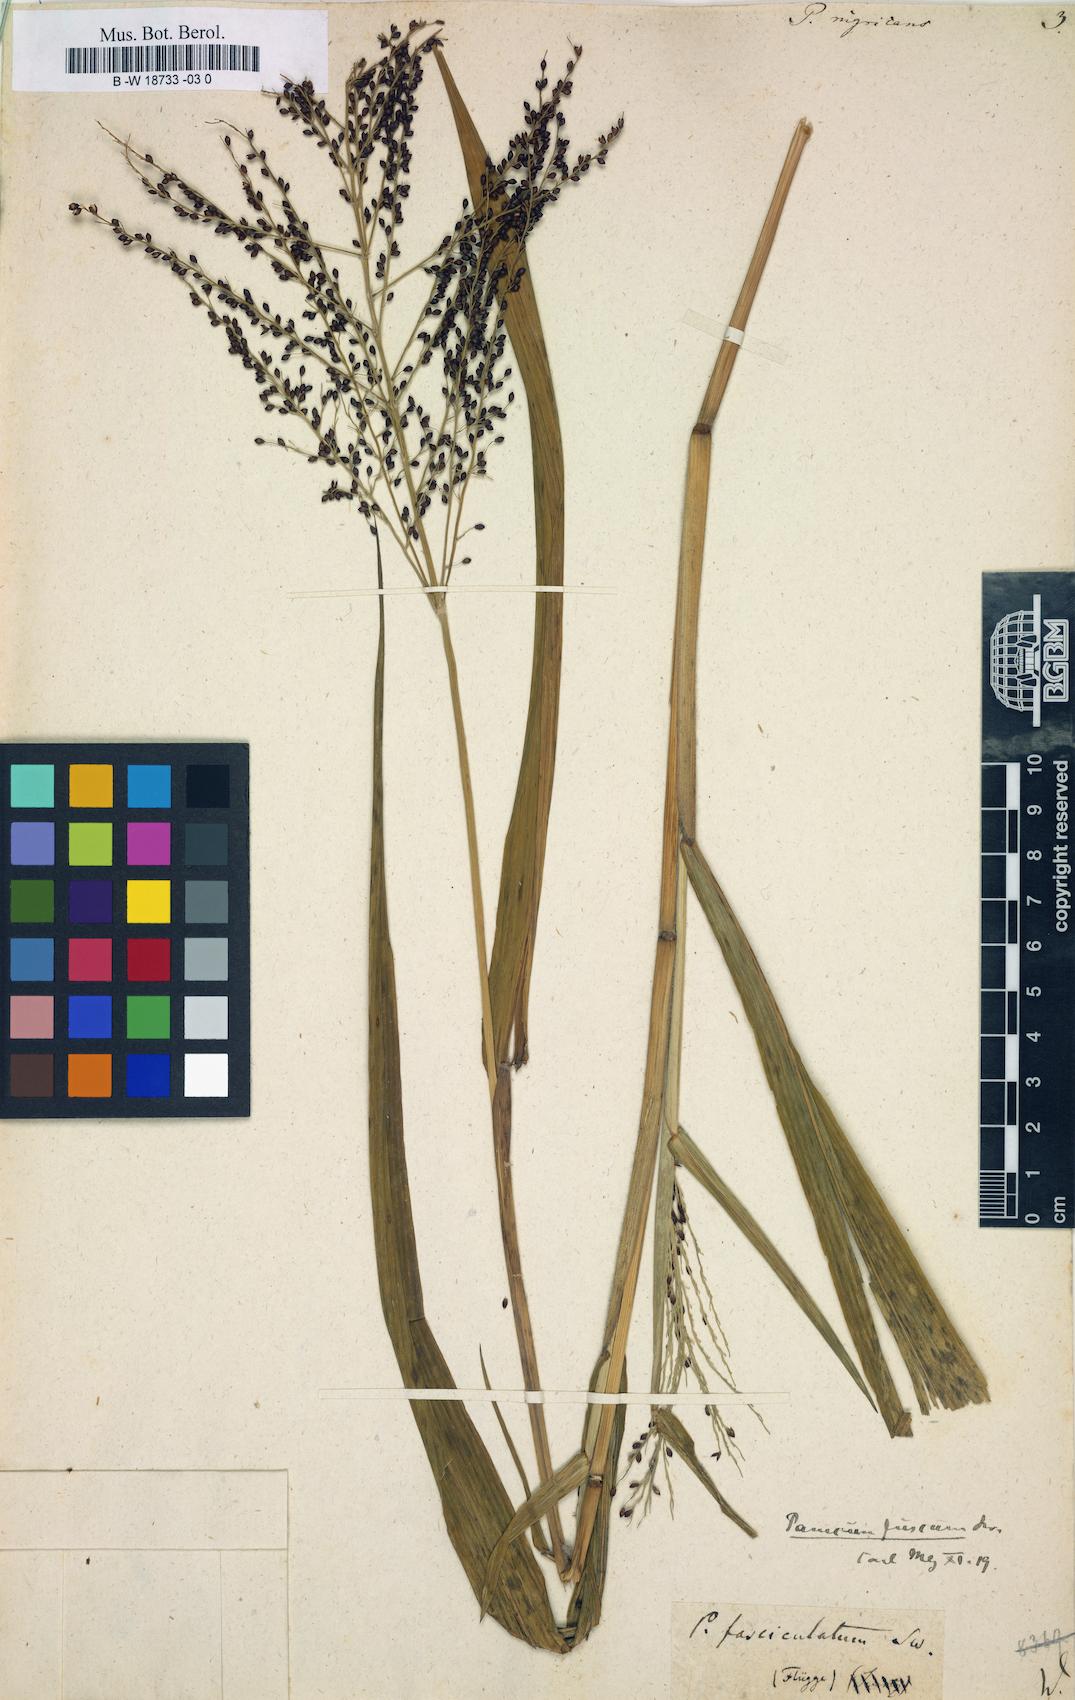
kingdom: Plantae
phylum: Tracheophyta
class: Liliopsida
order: Poales
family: Poaceae
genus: Urochloa
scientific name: Urochloa fusca
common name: Browntop signal grass
